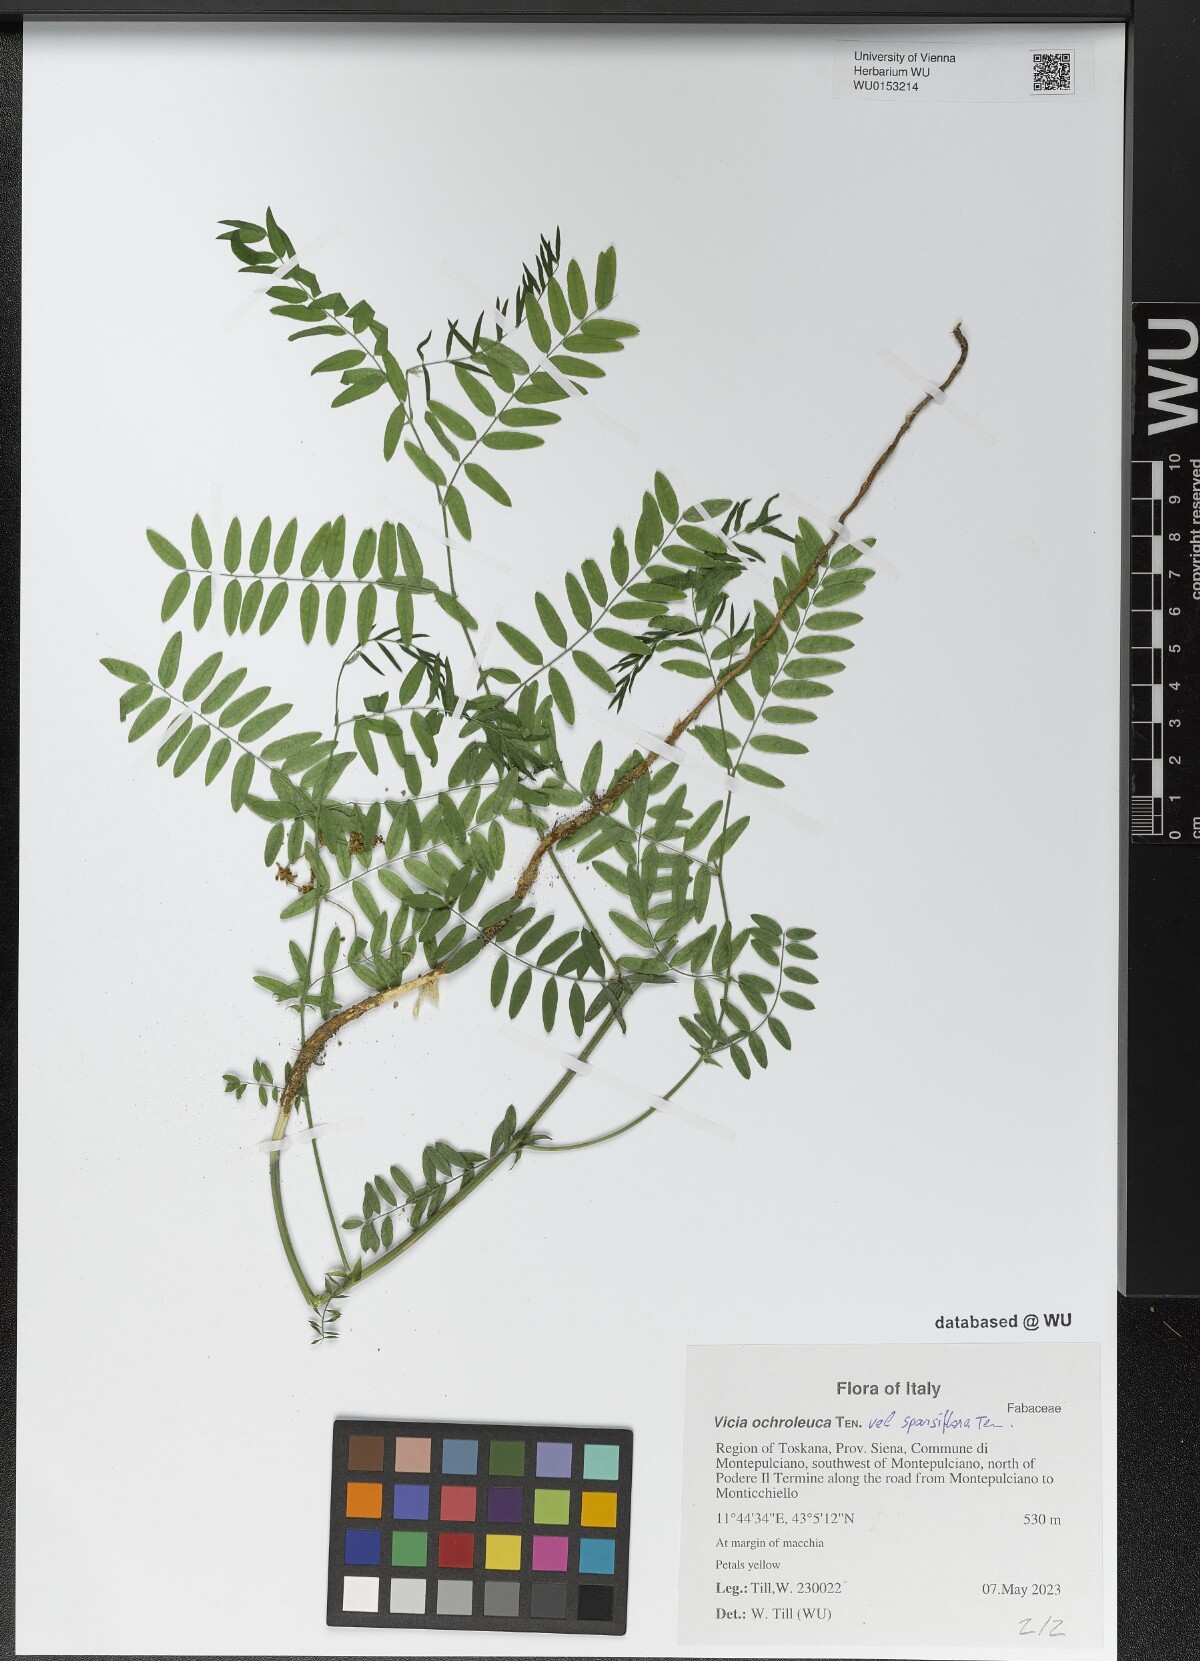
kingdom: Plantae
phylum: Tracheophyta
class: Magnoliopsida
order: Fabales
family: Fabaceae
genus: Vicia
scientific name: Vicia ochroleuca
